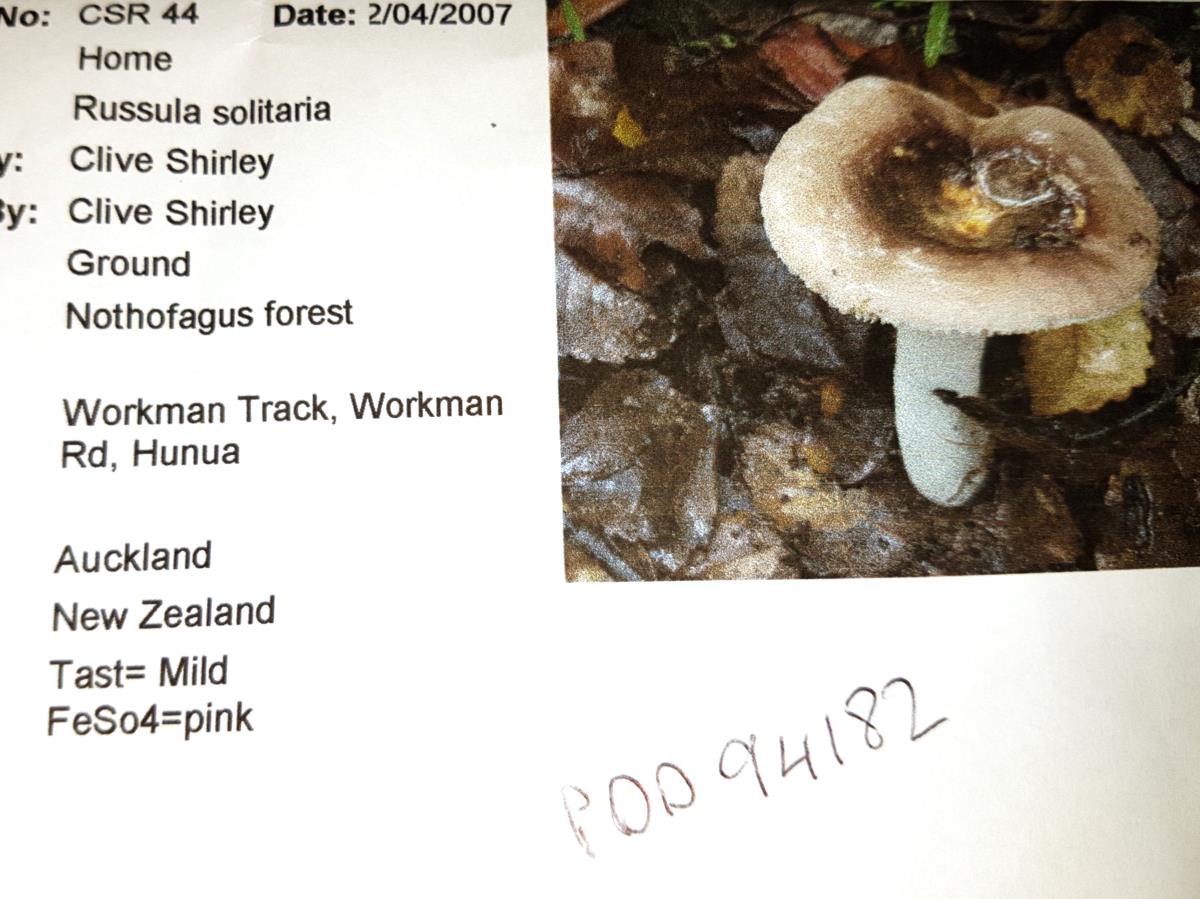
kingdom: Fungi
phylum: Basidiomycota
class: Agaricomycetes
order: Russulales
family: Russulaceae
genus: Russula
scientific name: Russula umerensis
